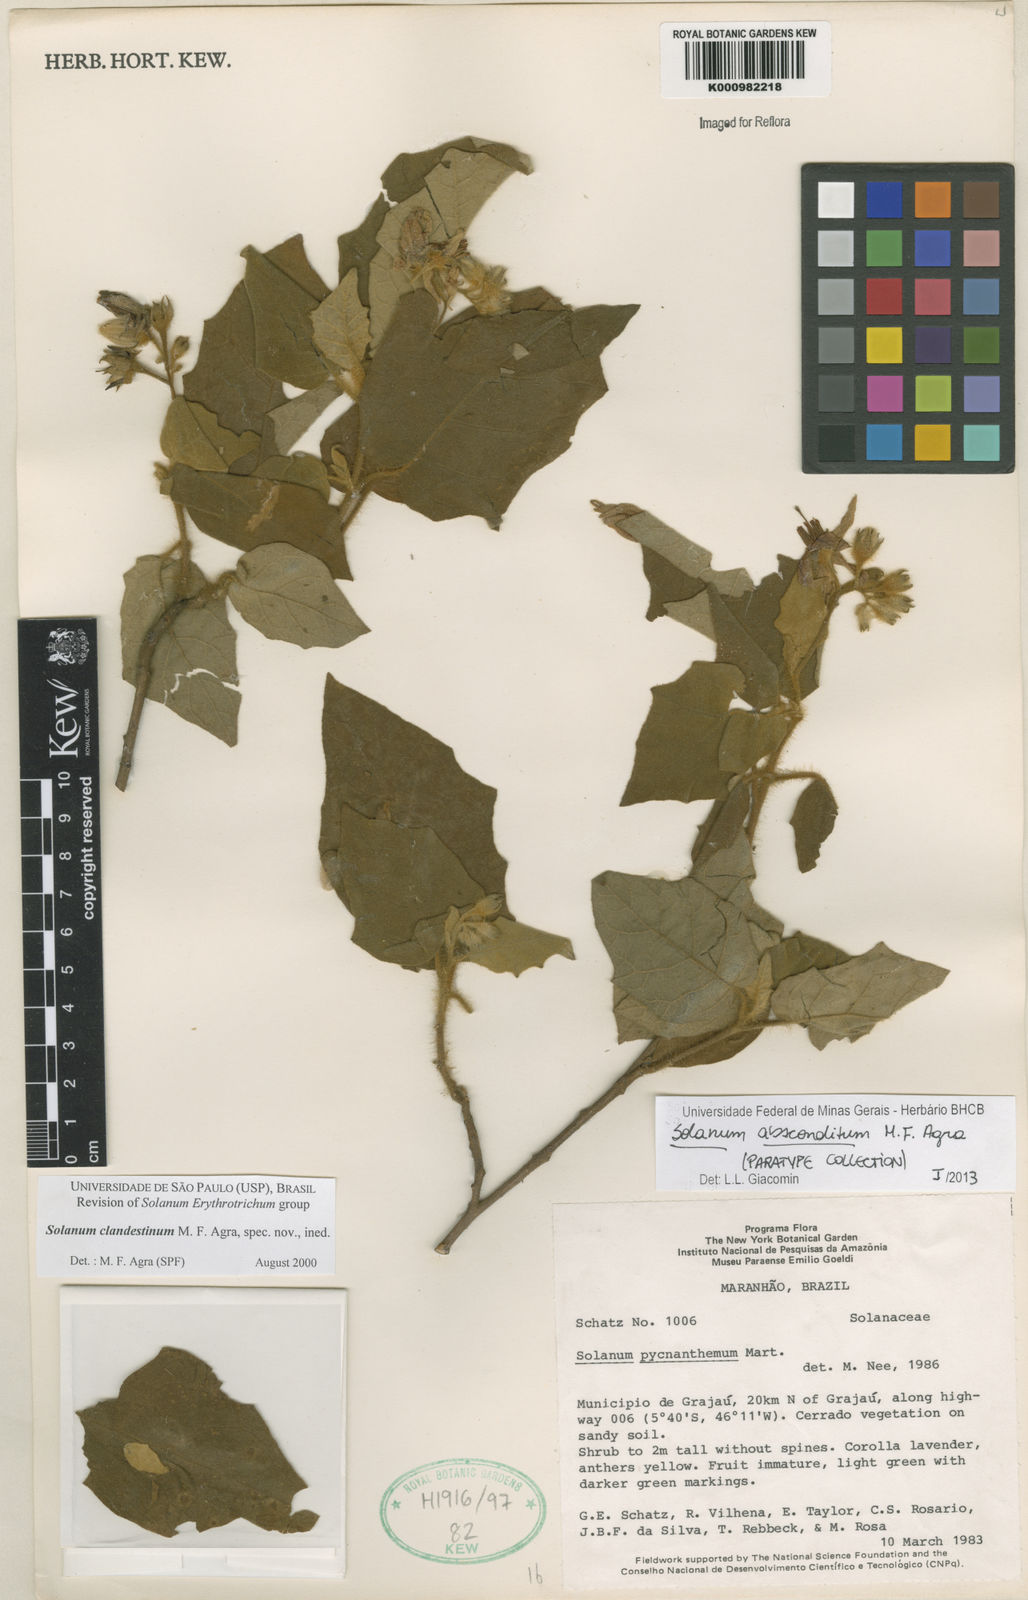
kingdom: Plantae
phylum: Tracheophyta
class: Magnoliopsida
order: Solanales
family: Solanaceae
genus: Solanum
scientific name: Solanum absconditum
